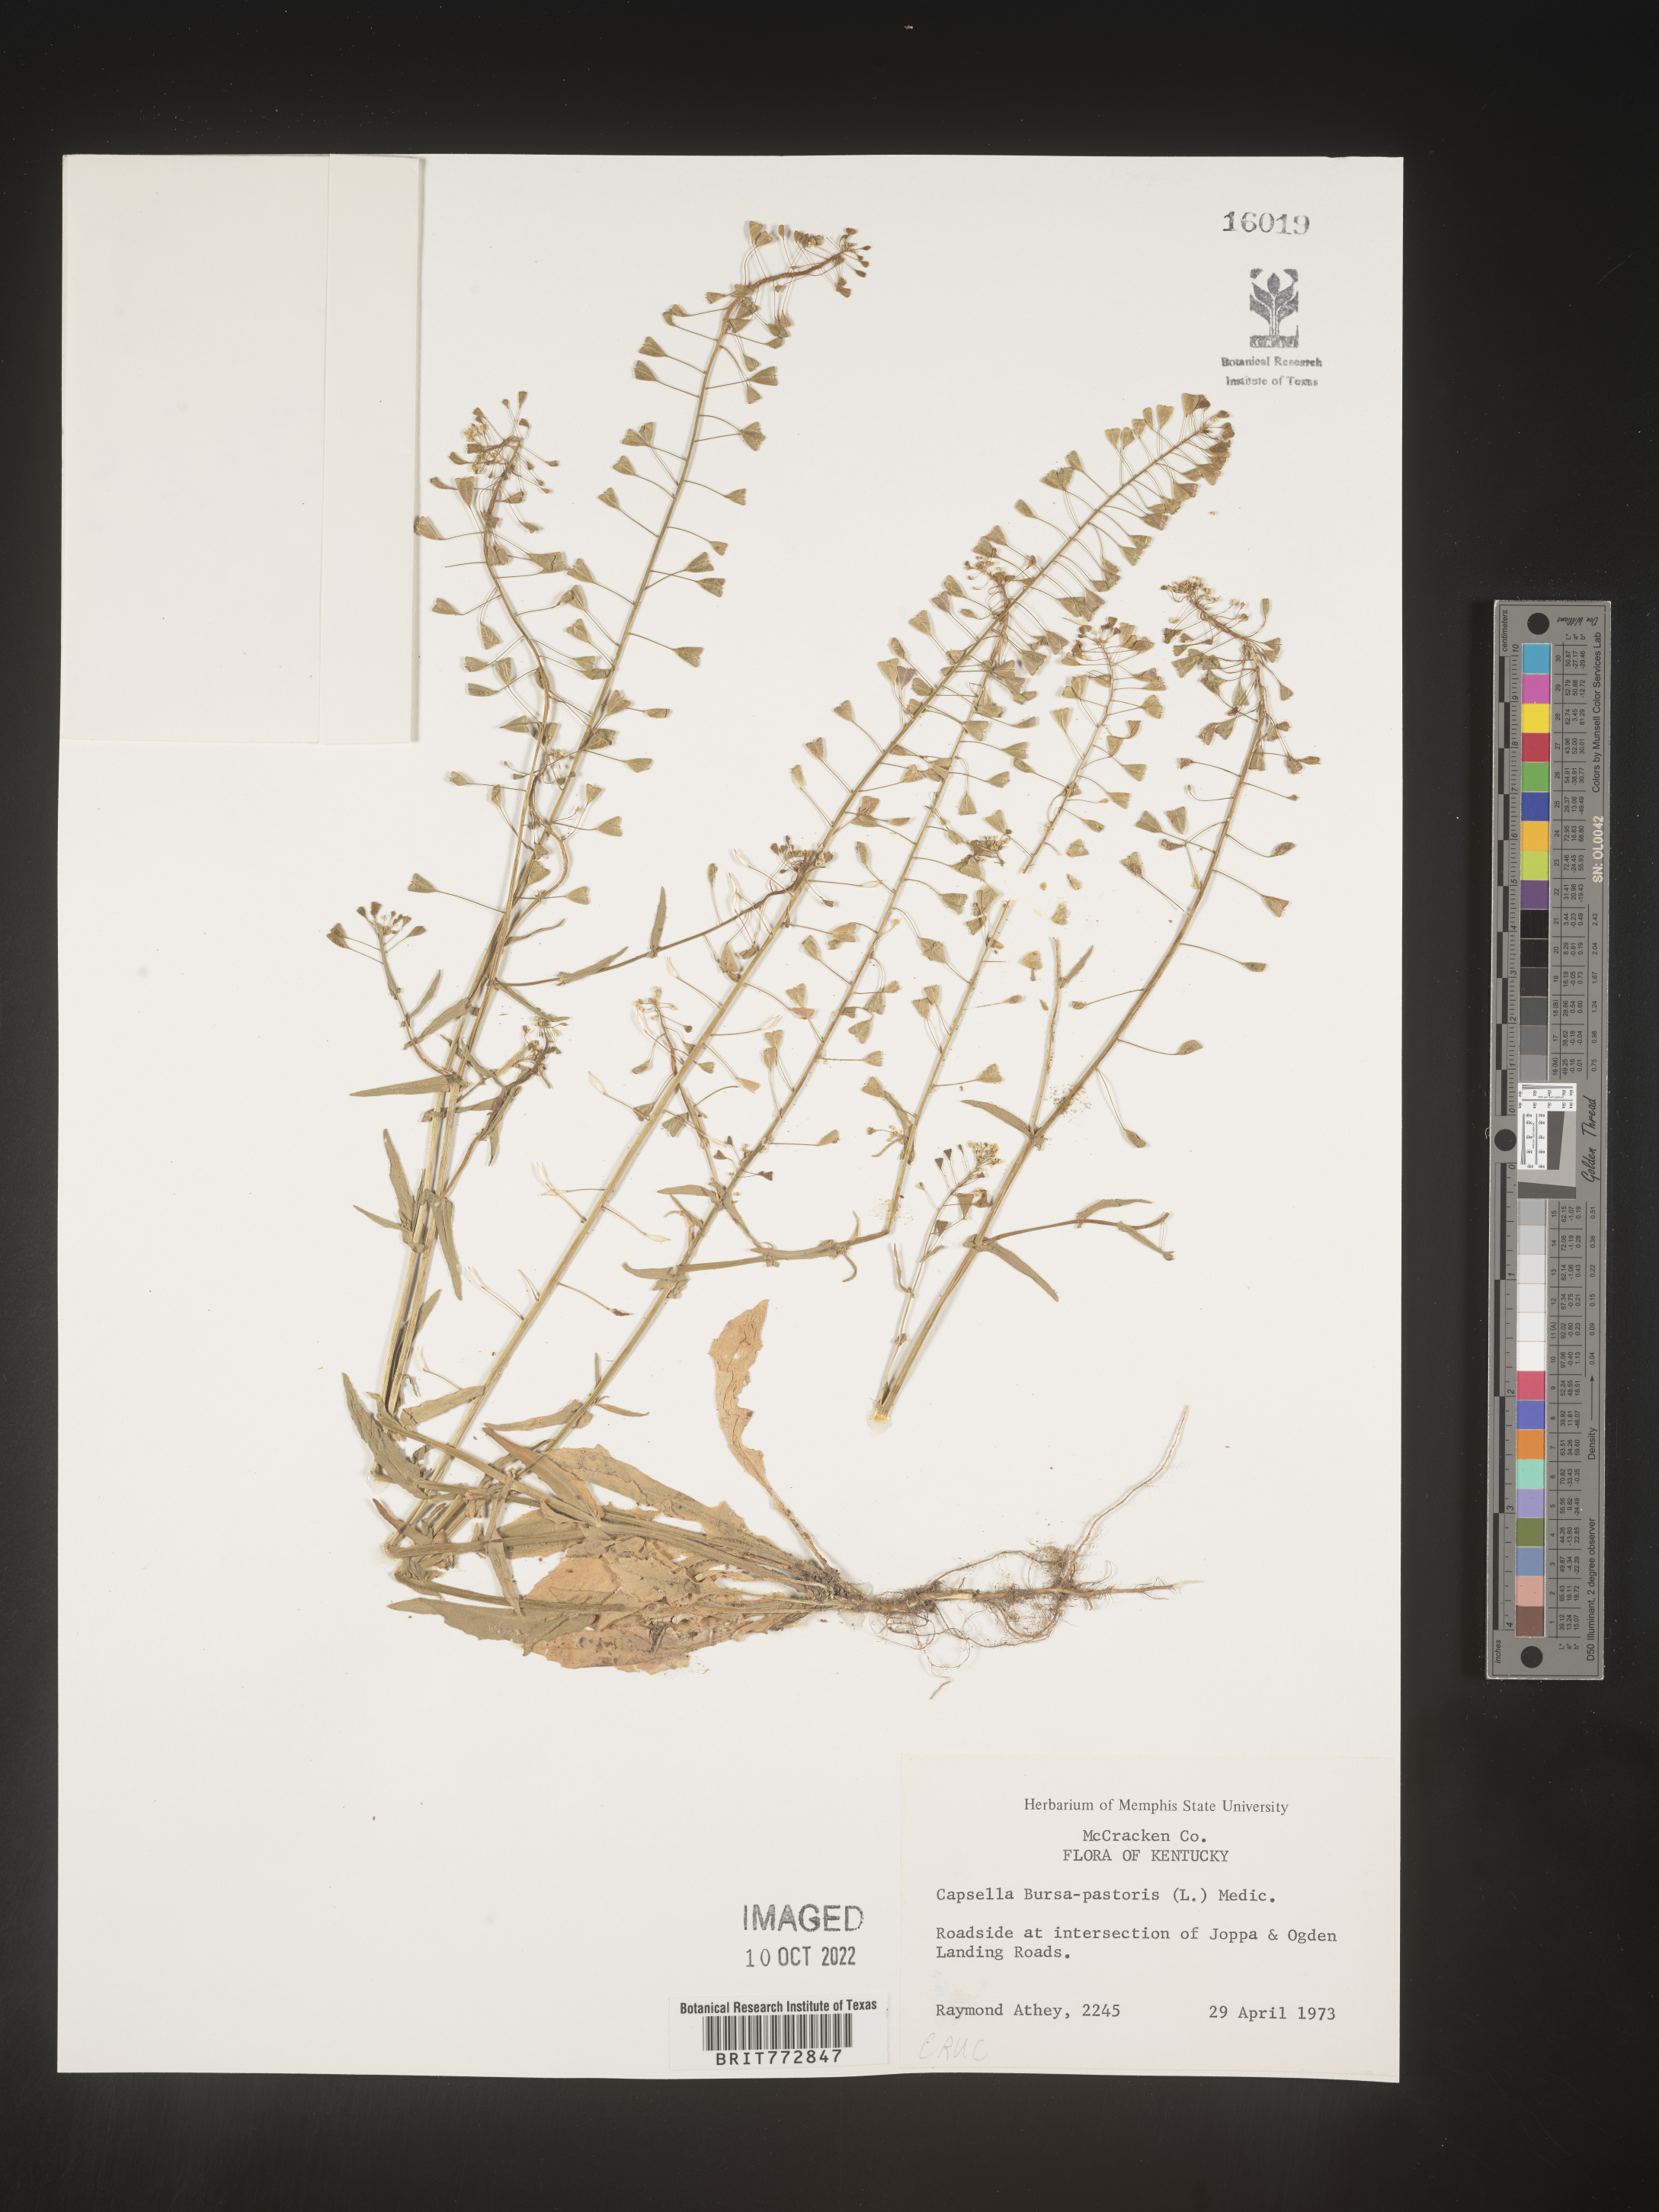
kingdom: Plantae
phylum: Tracheophyta
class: Magnoliopsida
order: Brassicales
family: Brassicaceae
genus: Capsella
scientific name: Capsella bursa-pastoris
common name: Shepherd's purse
